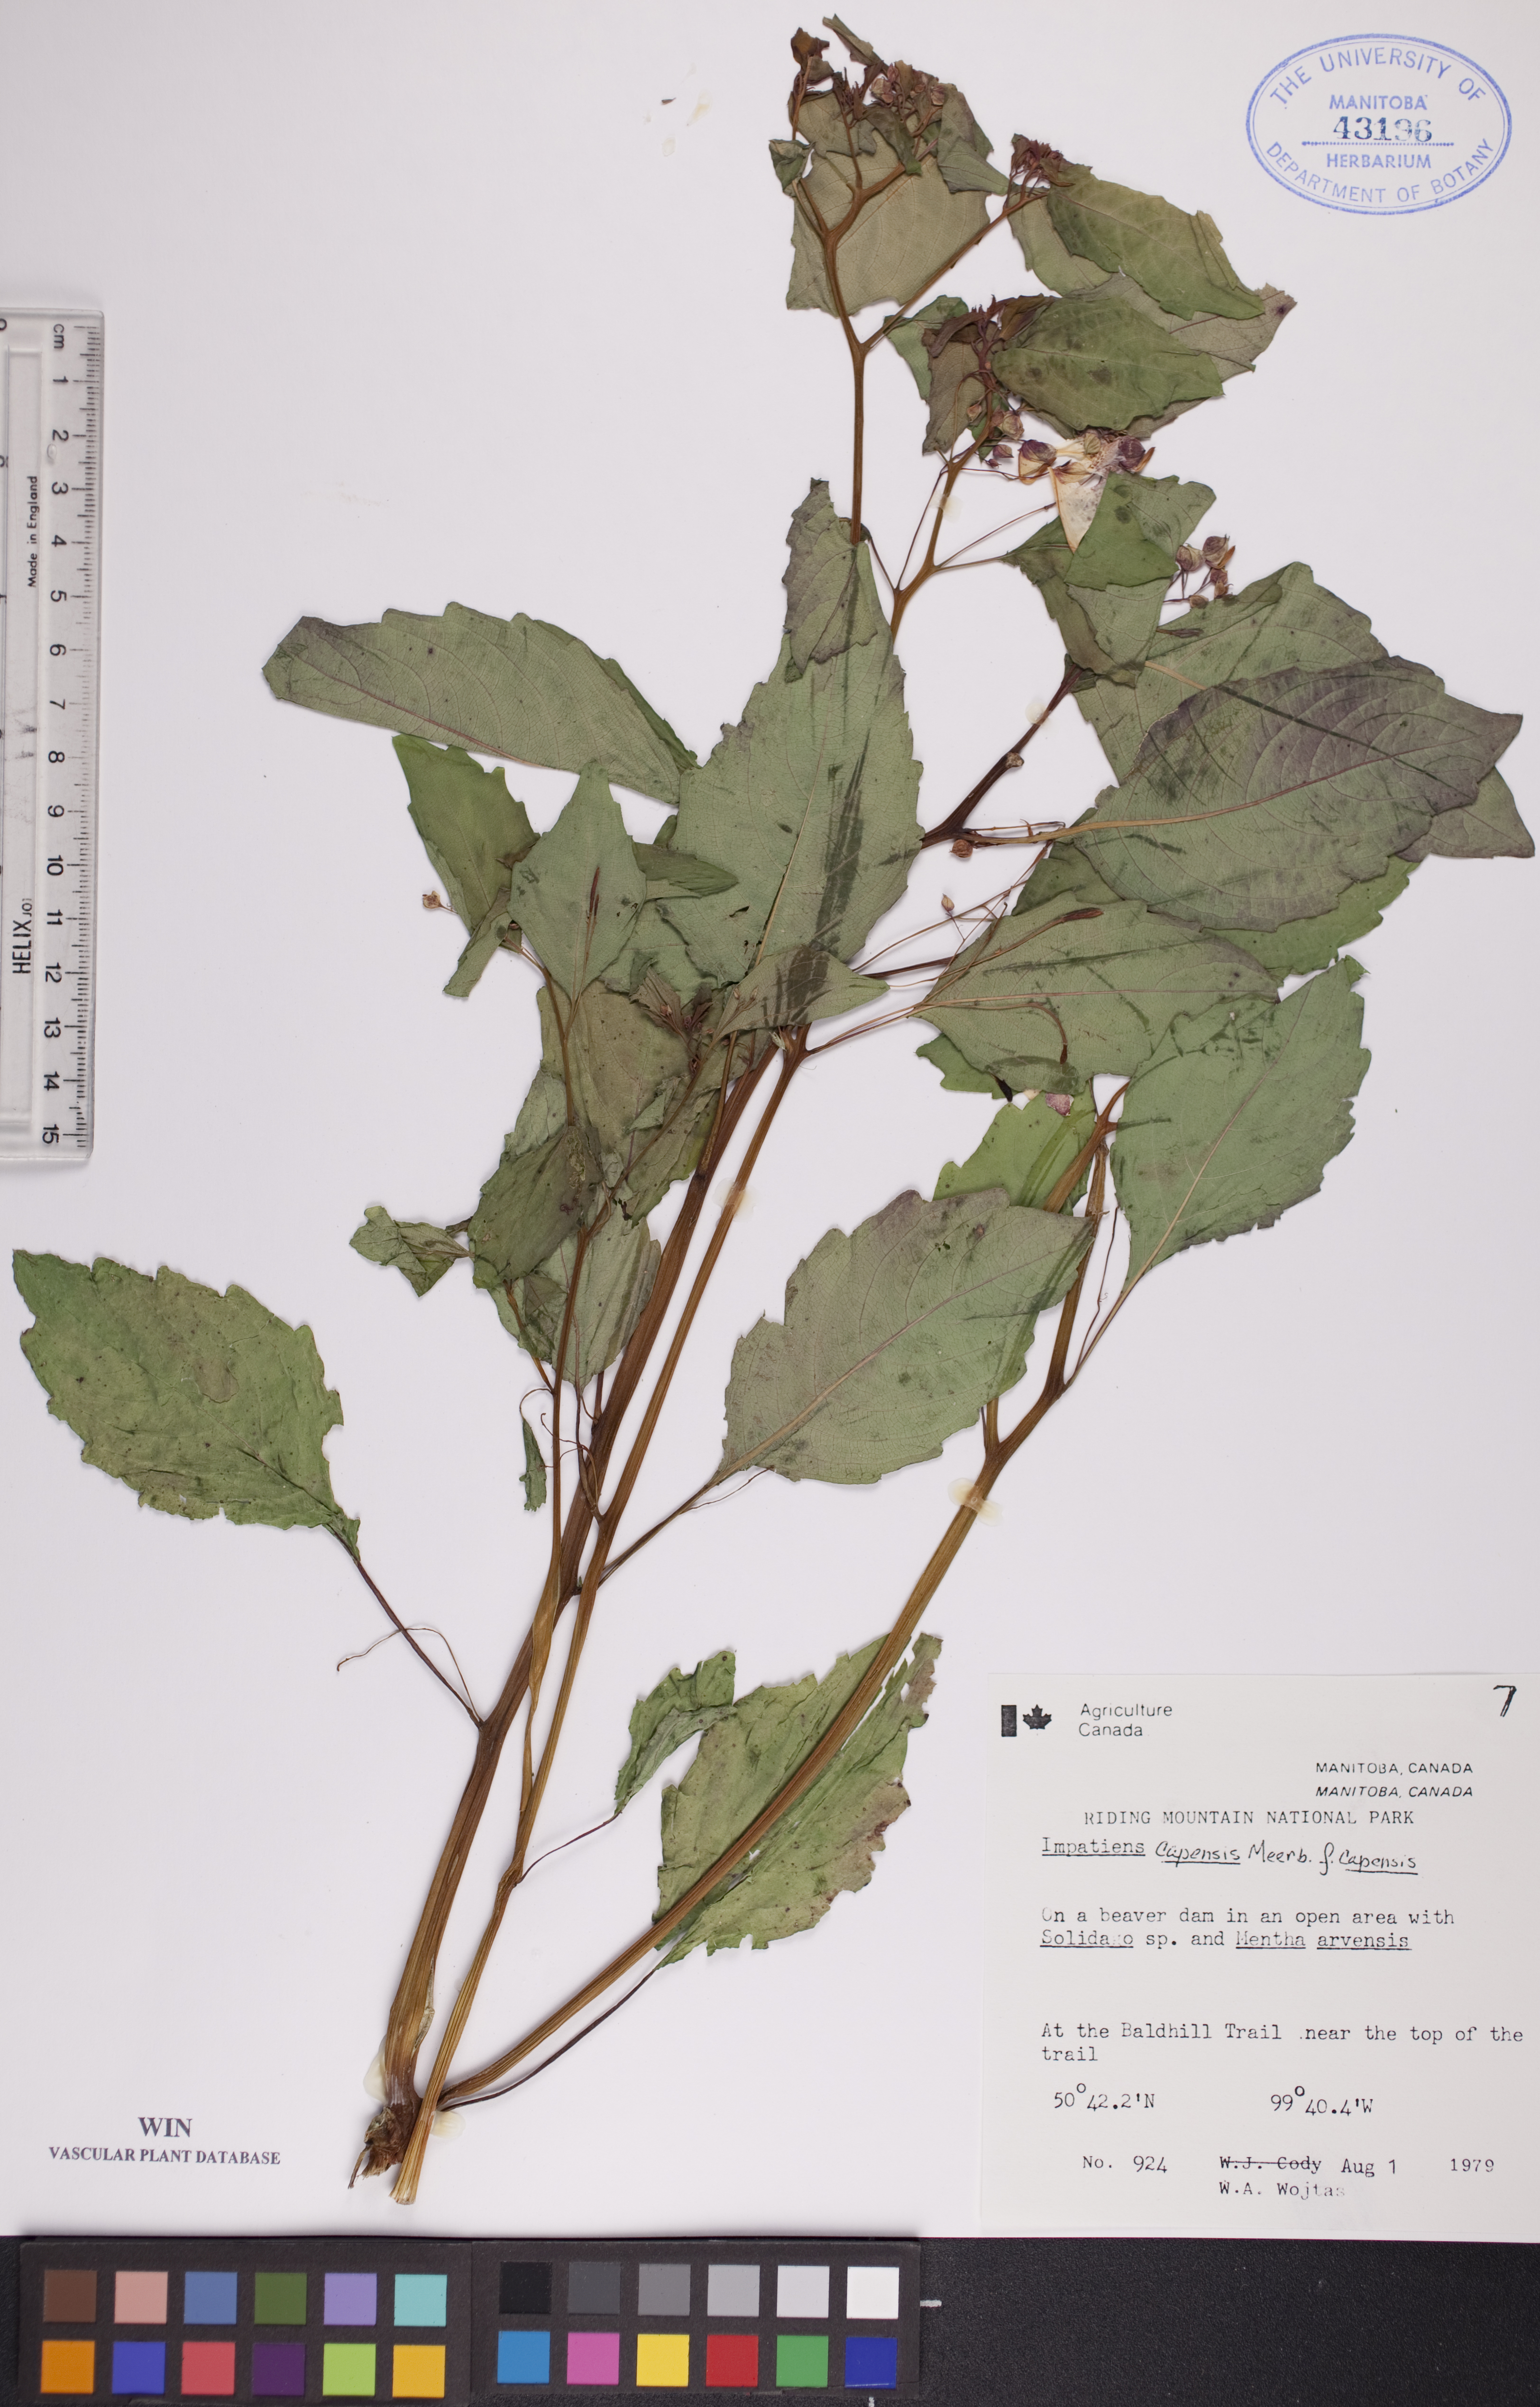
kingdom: Plantae
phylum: Tracheophyta
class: Magnoliopsida
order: Ericales
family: Balsaminaceae
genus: Impatiens
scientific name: Impatiens capensis
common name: Orange balsam
